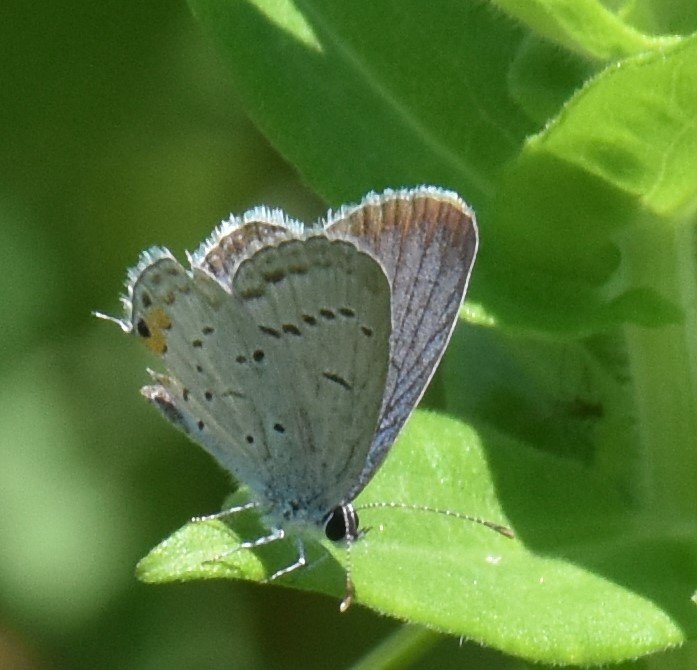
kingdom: Animalia
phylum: Arthropoda
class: Insecta
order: Lepidoptera
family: Lycaenidae
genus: Elkalyce
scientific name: Elkalyce comyntas
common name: Eastern Tailed-Blue
